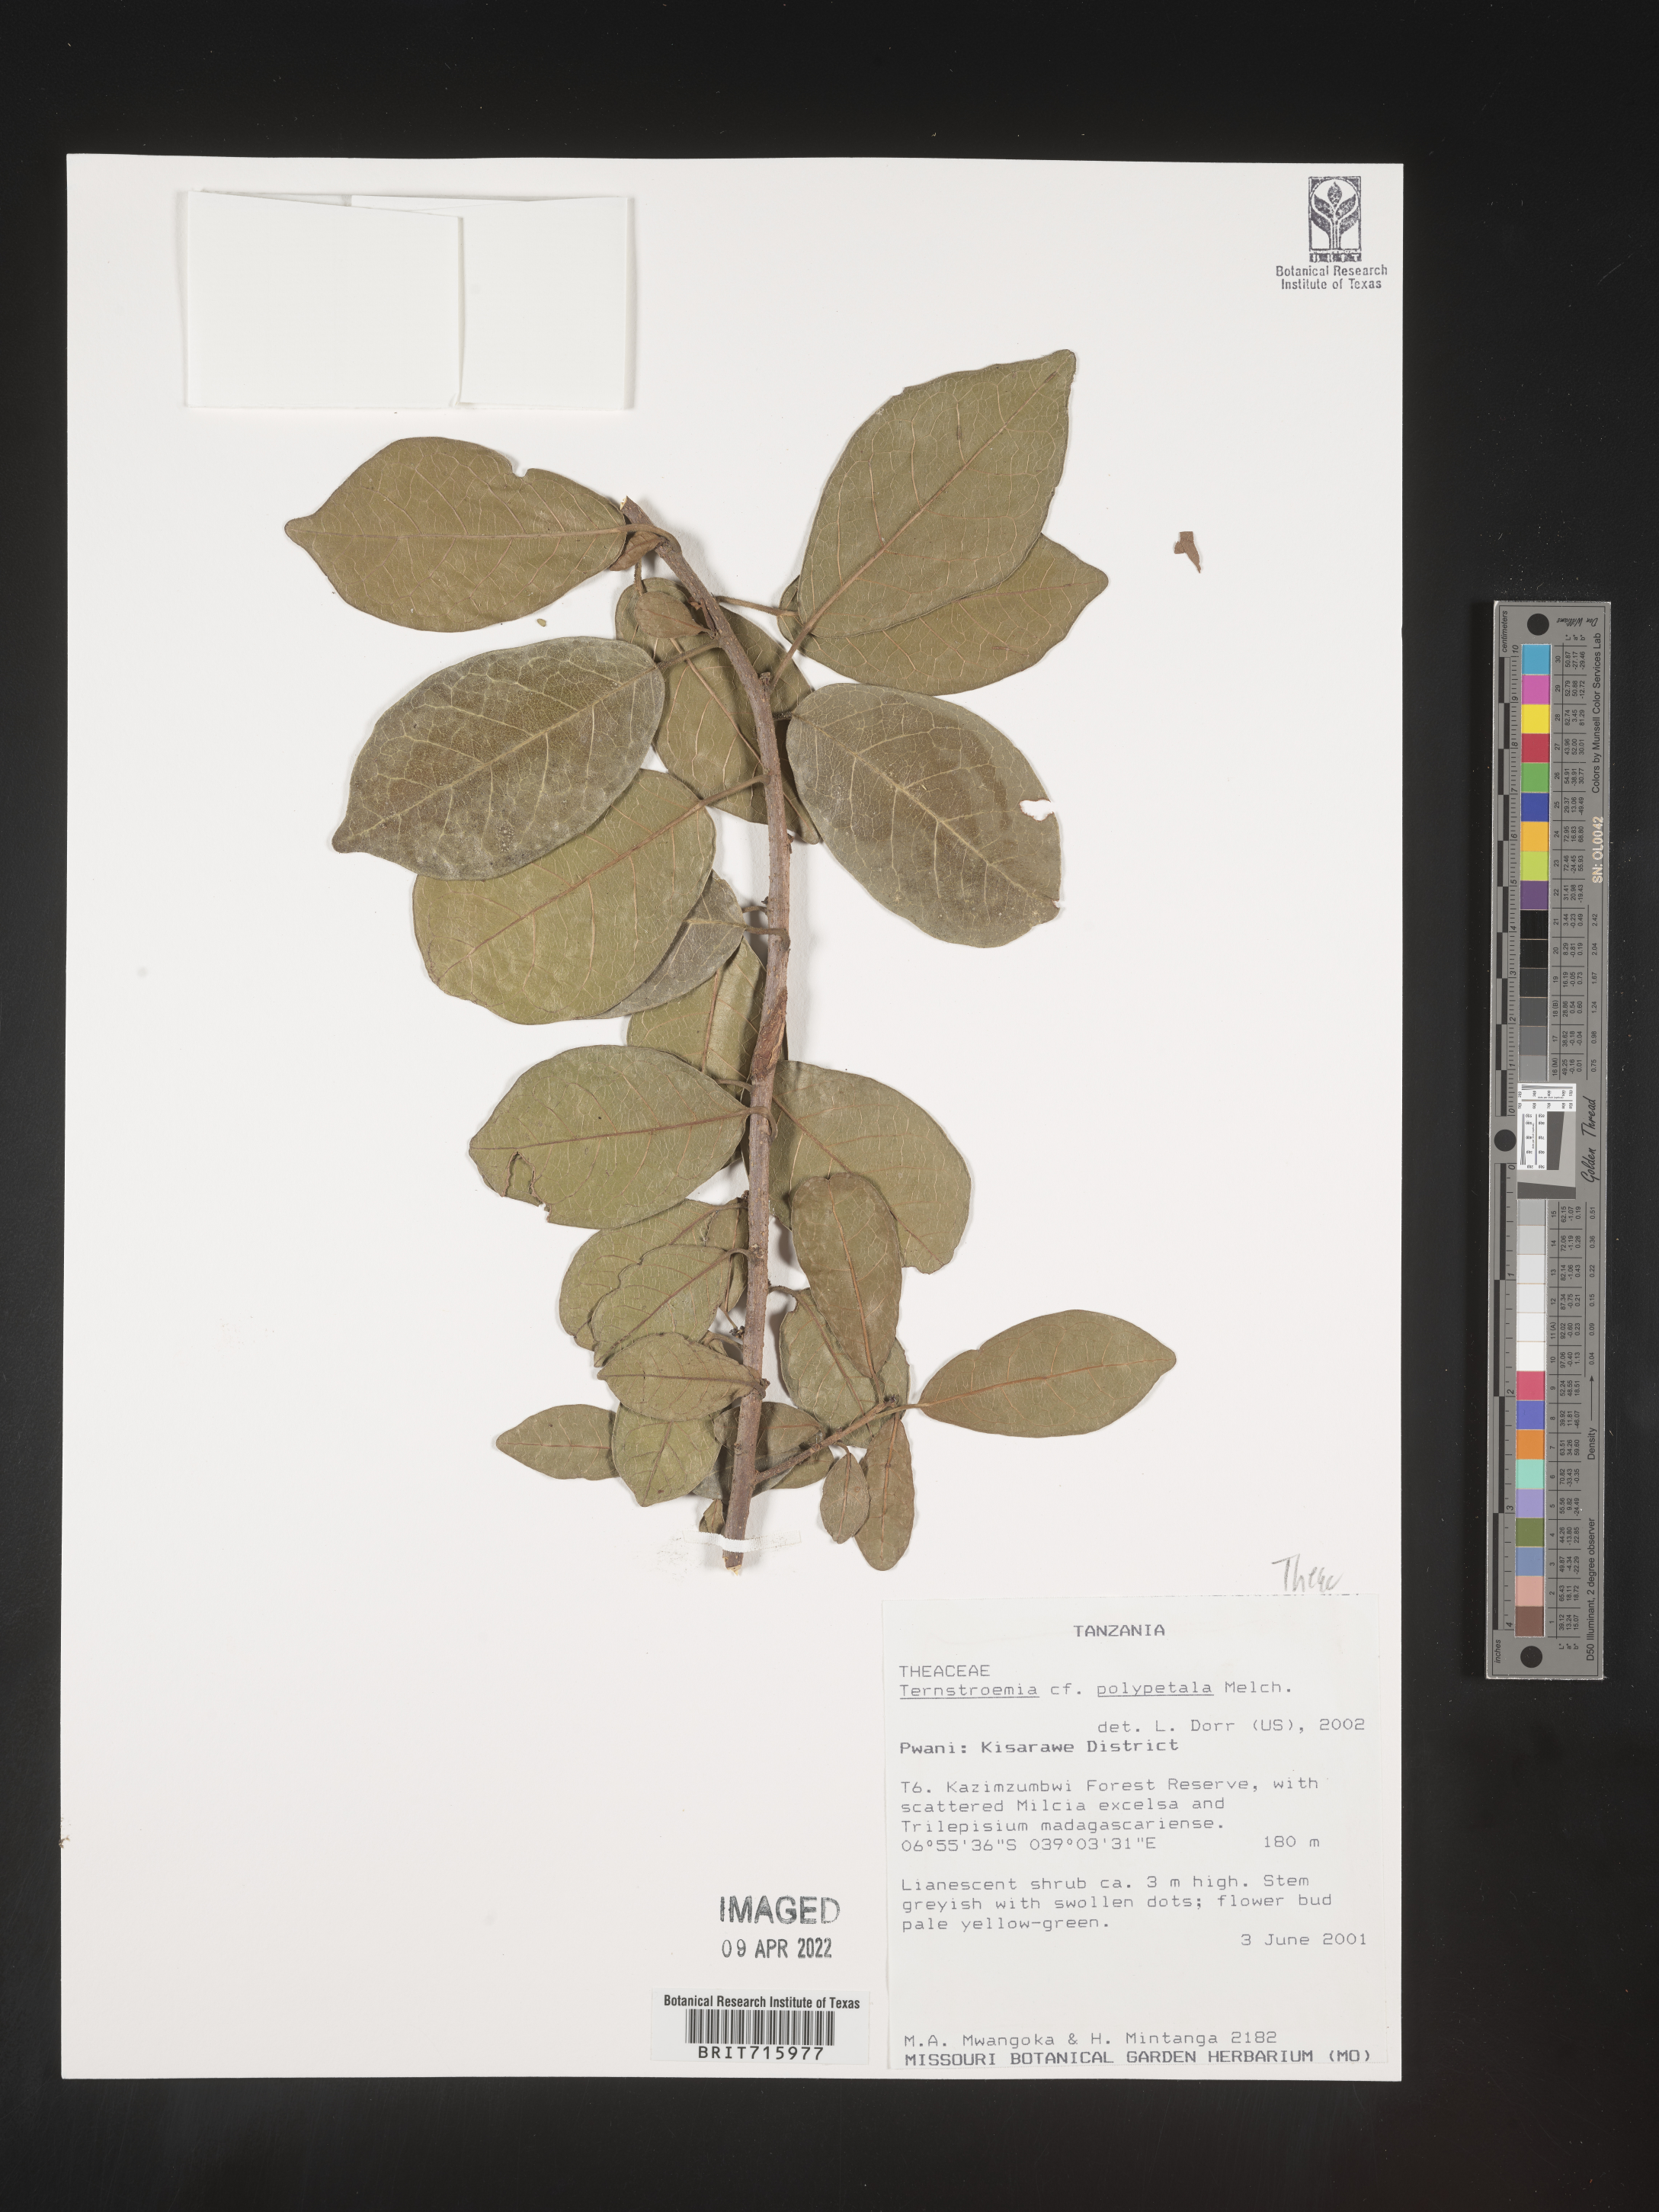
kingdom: Plantae
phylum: Tracheophyta
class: Magnoliopsida
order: Ericales
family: Pentaphylacaceae
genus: Ternstroemia
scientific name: Ternstroemia
